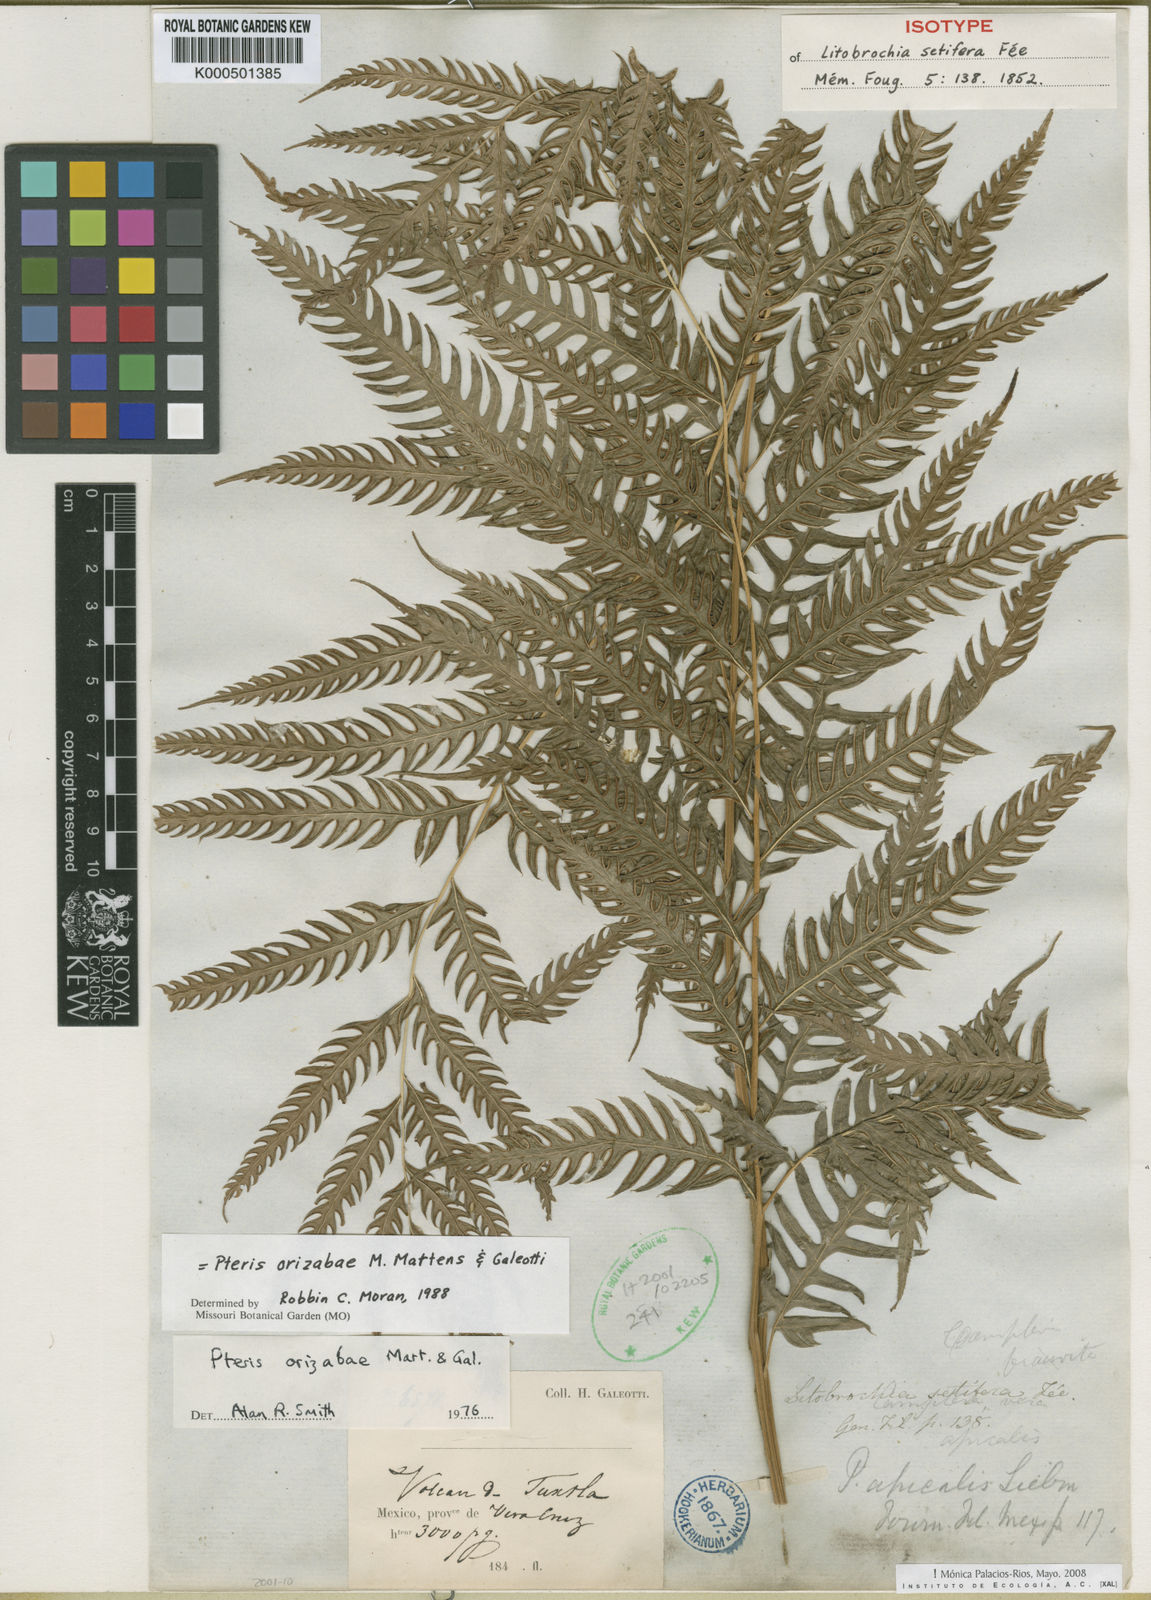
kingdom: Plantae
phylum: Tracheophyta
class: Polypodiopsida
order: Polypodiales
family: Pteridaceae
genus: Pteris
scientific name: Pteris orizabae
